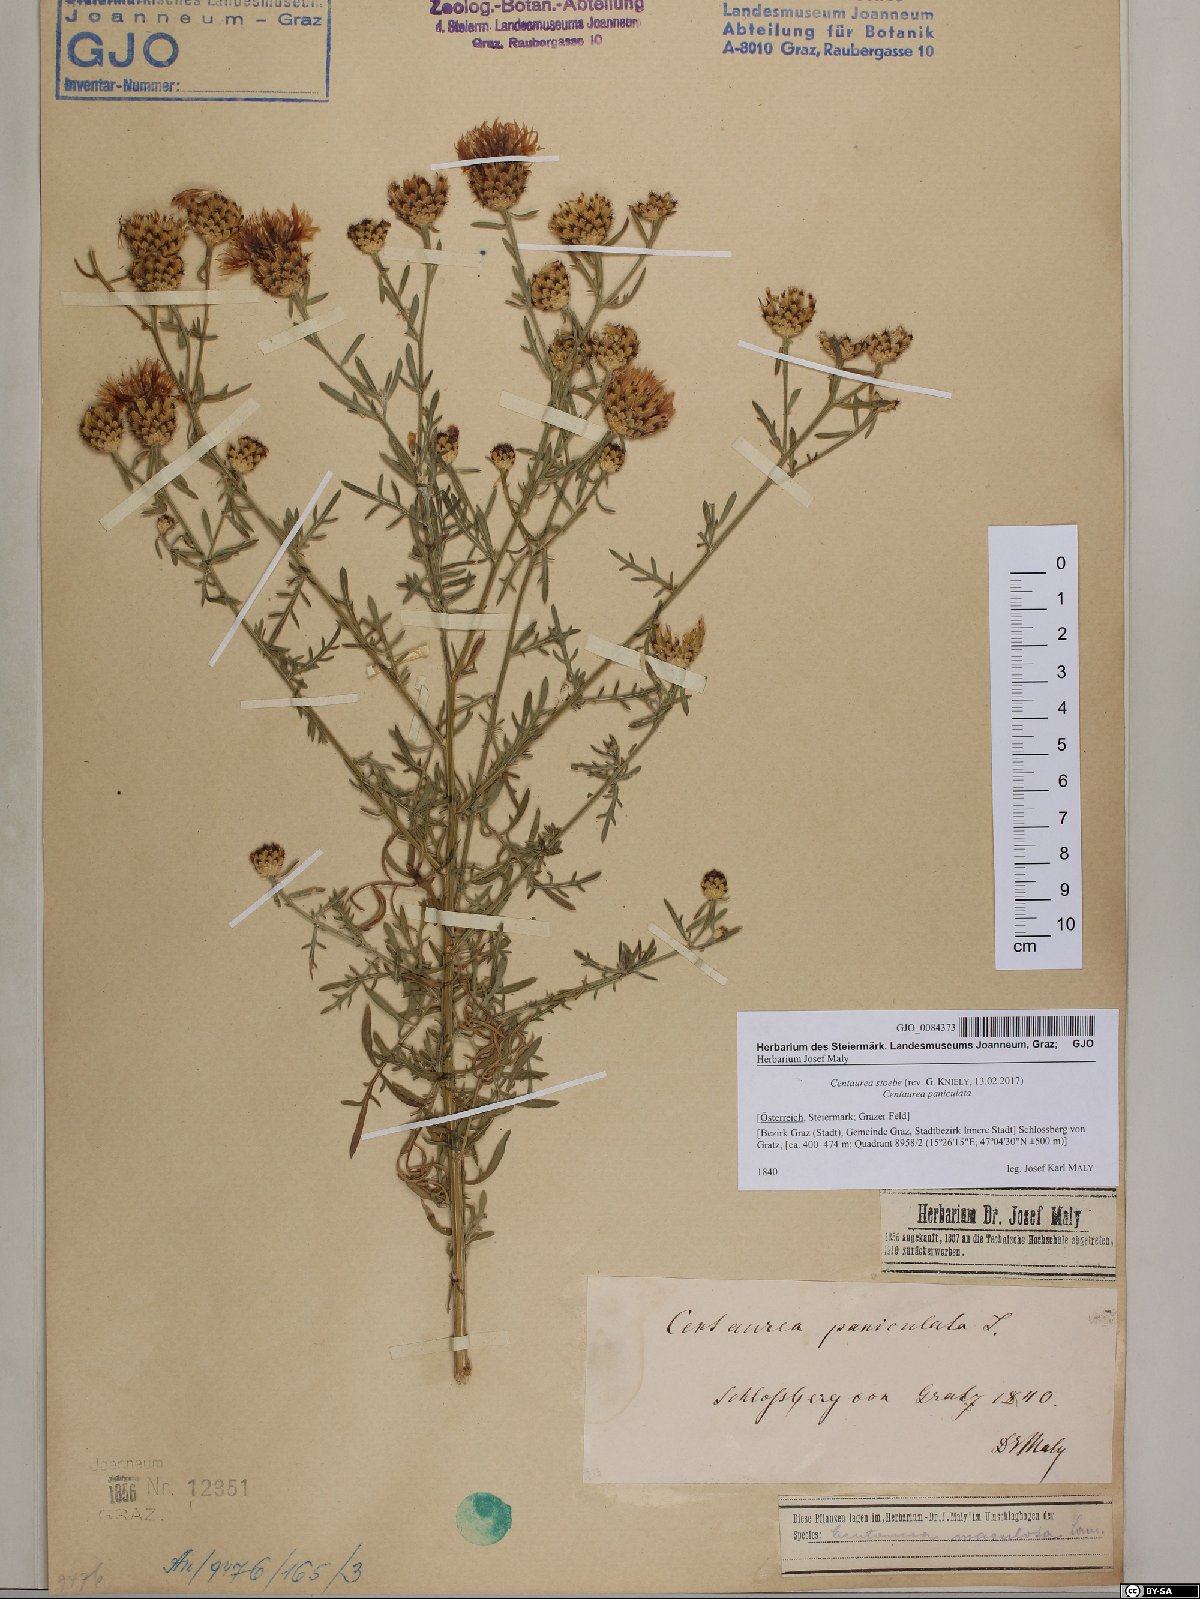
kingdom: Plantae
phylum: Tracheophyta
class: Magnoliopsida
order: Asterales
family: Asteraceae
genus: Centaurea
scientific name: Centaurea stoebe
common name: Spotted knapweed
